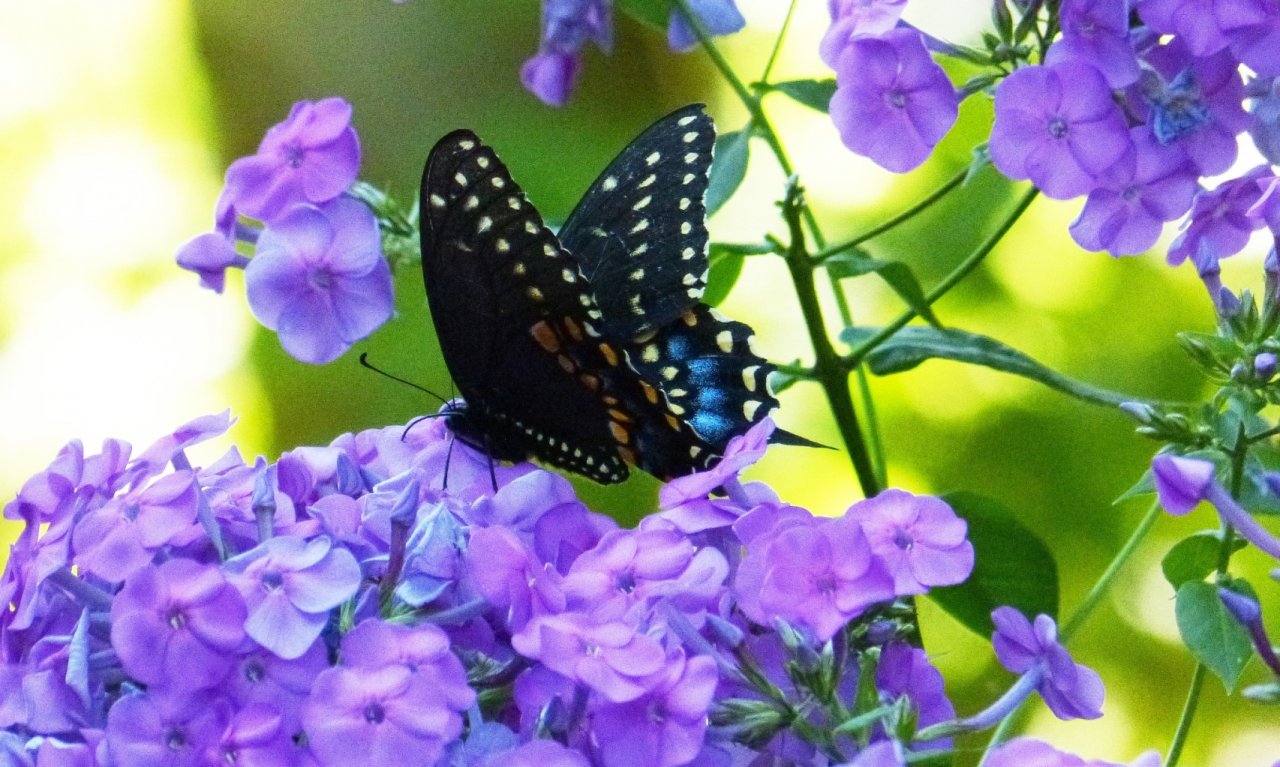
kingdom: Animalia
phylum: Arthropoda
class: Insecta
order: Lepidoptera
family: Papilionidae
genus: Papilio
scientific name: Papilio polyxenes
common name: Black Swallowtail
